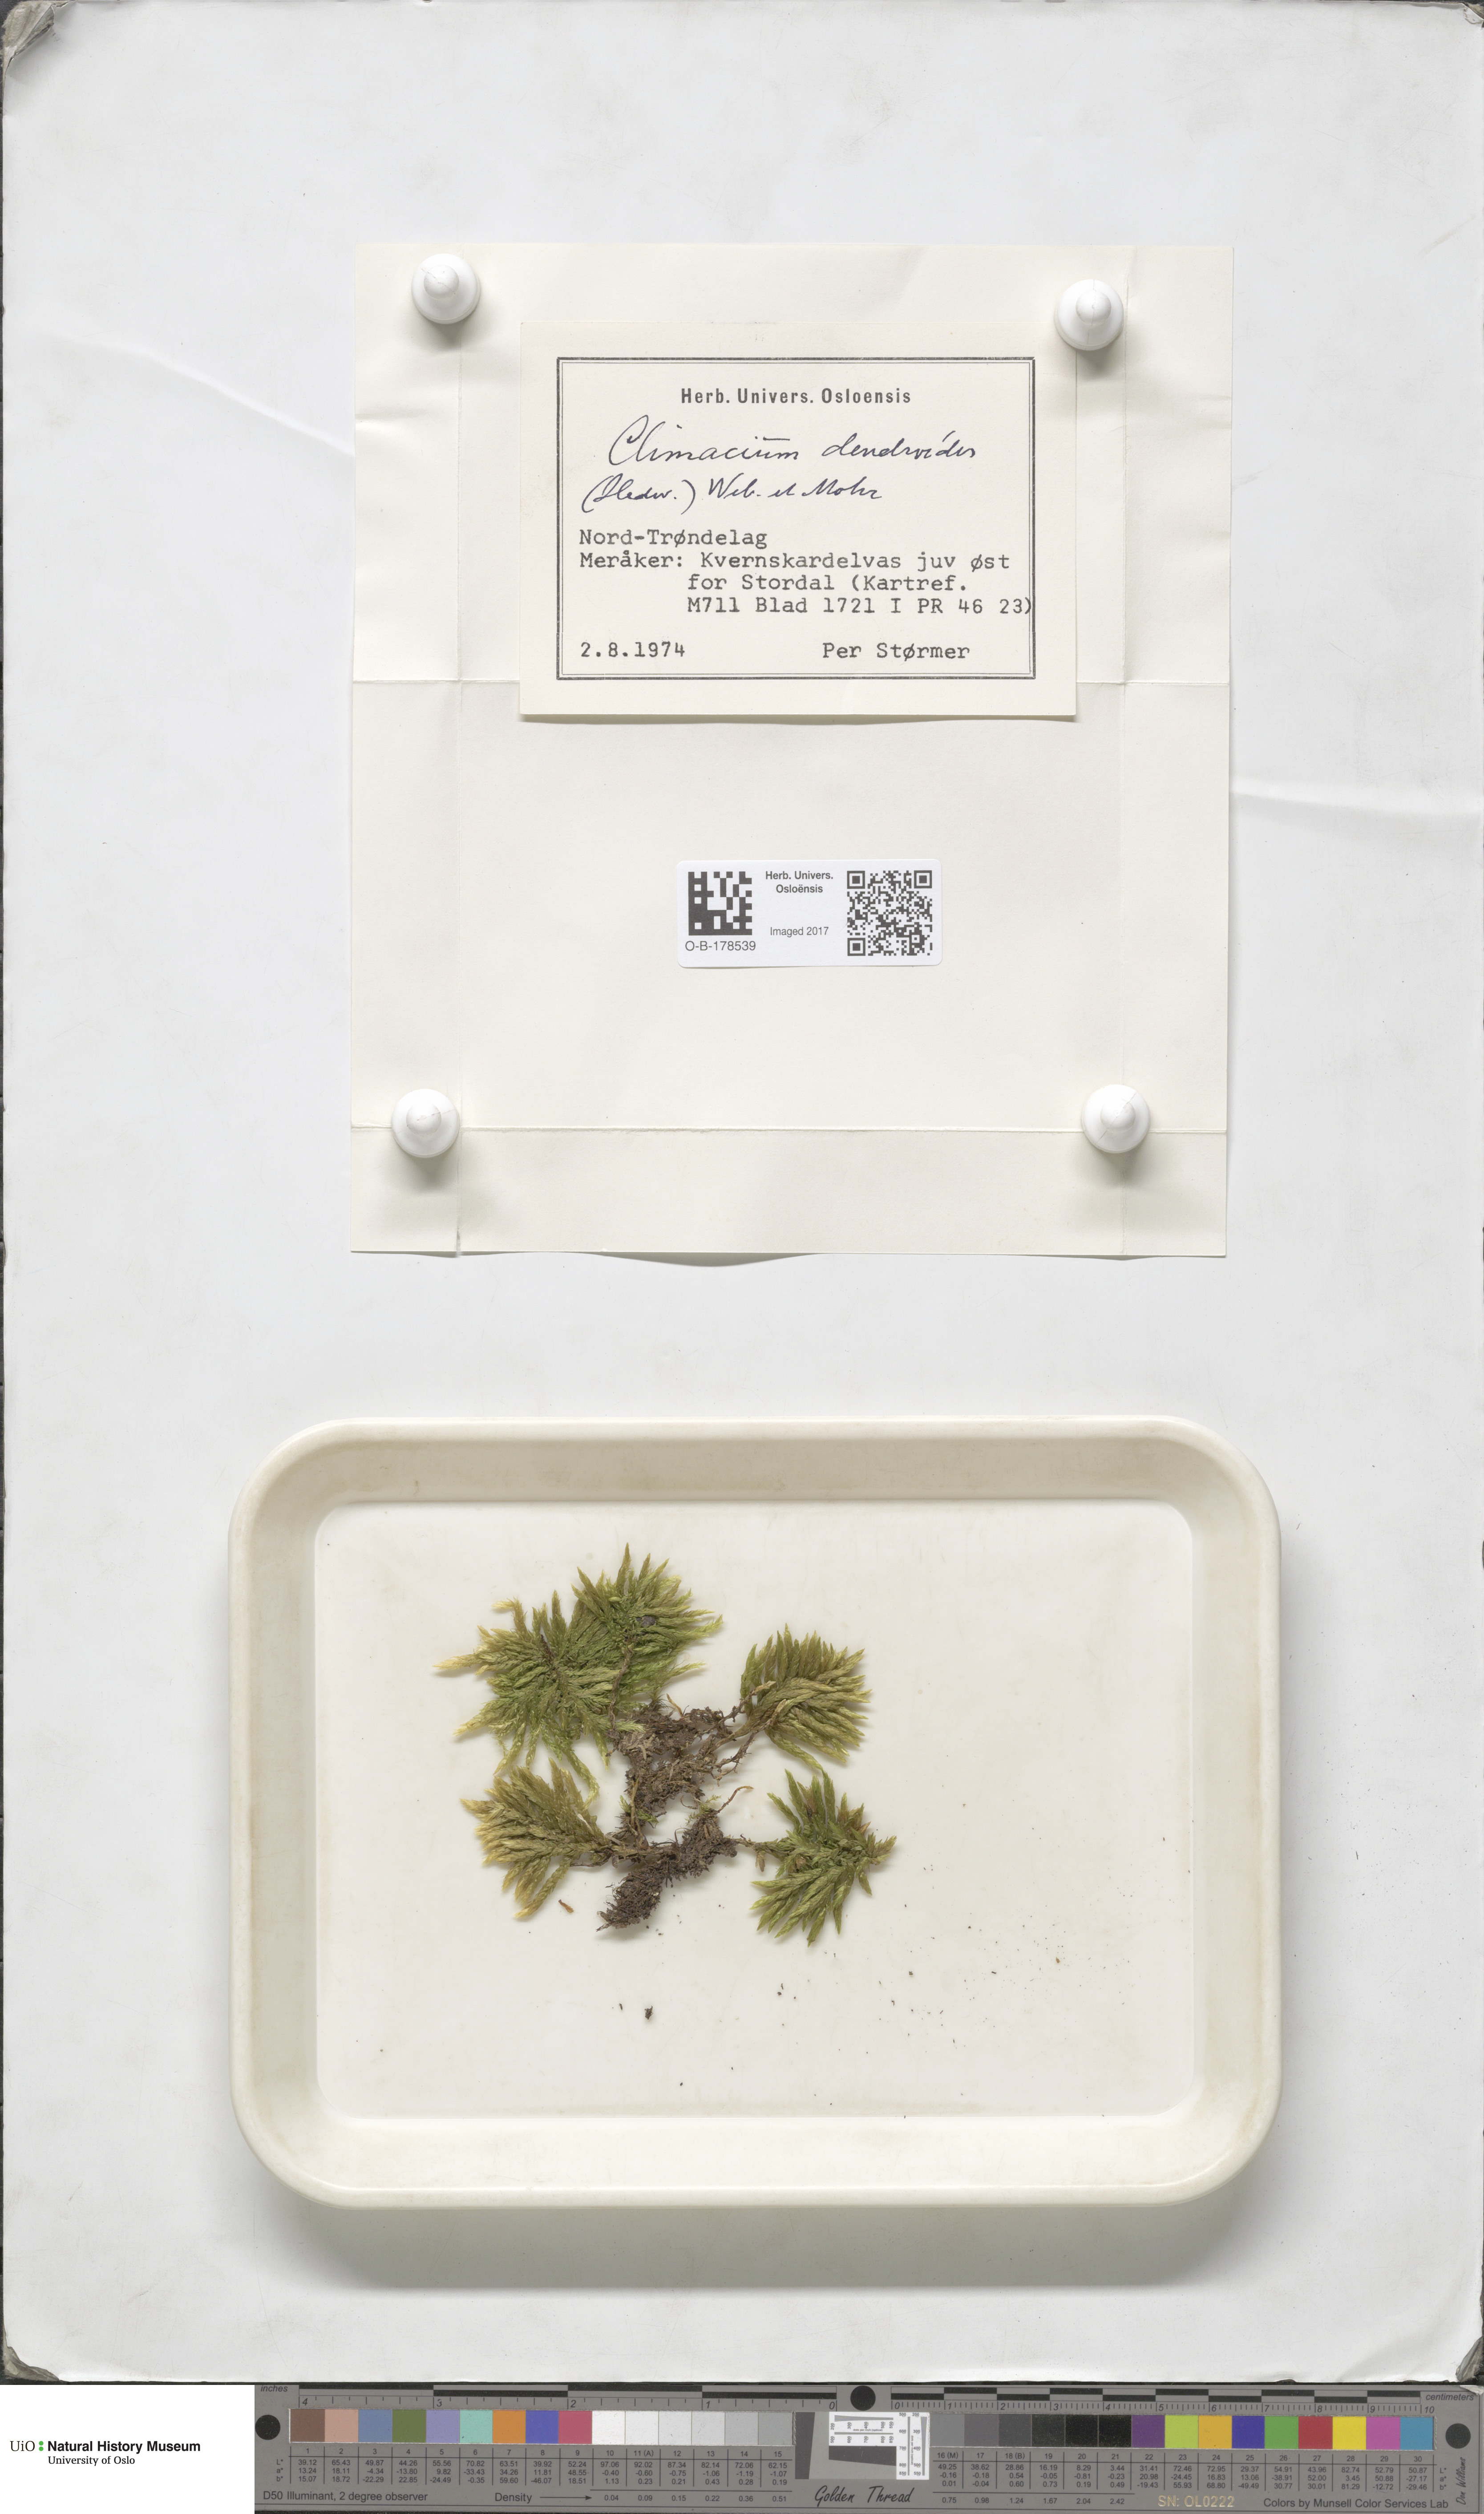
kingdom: Plantae
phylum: Bryophyta
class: Bryopsida
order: Hypnales
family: Climaciaceae
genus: Climacium
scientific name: Climacium dendroides
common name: Northern tree moss
